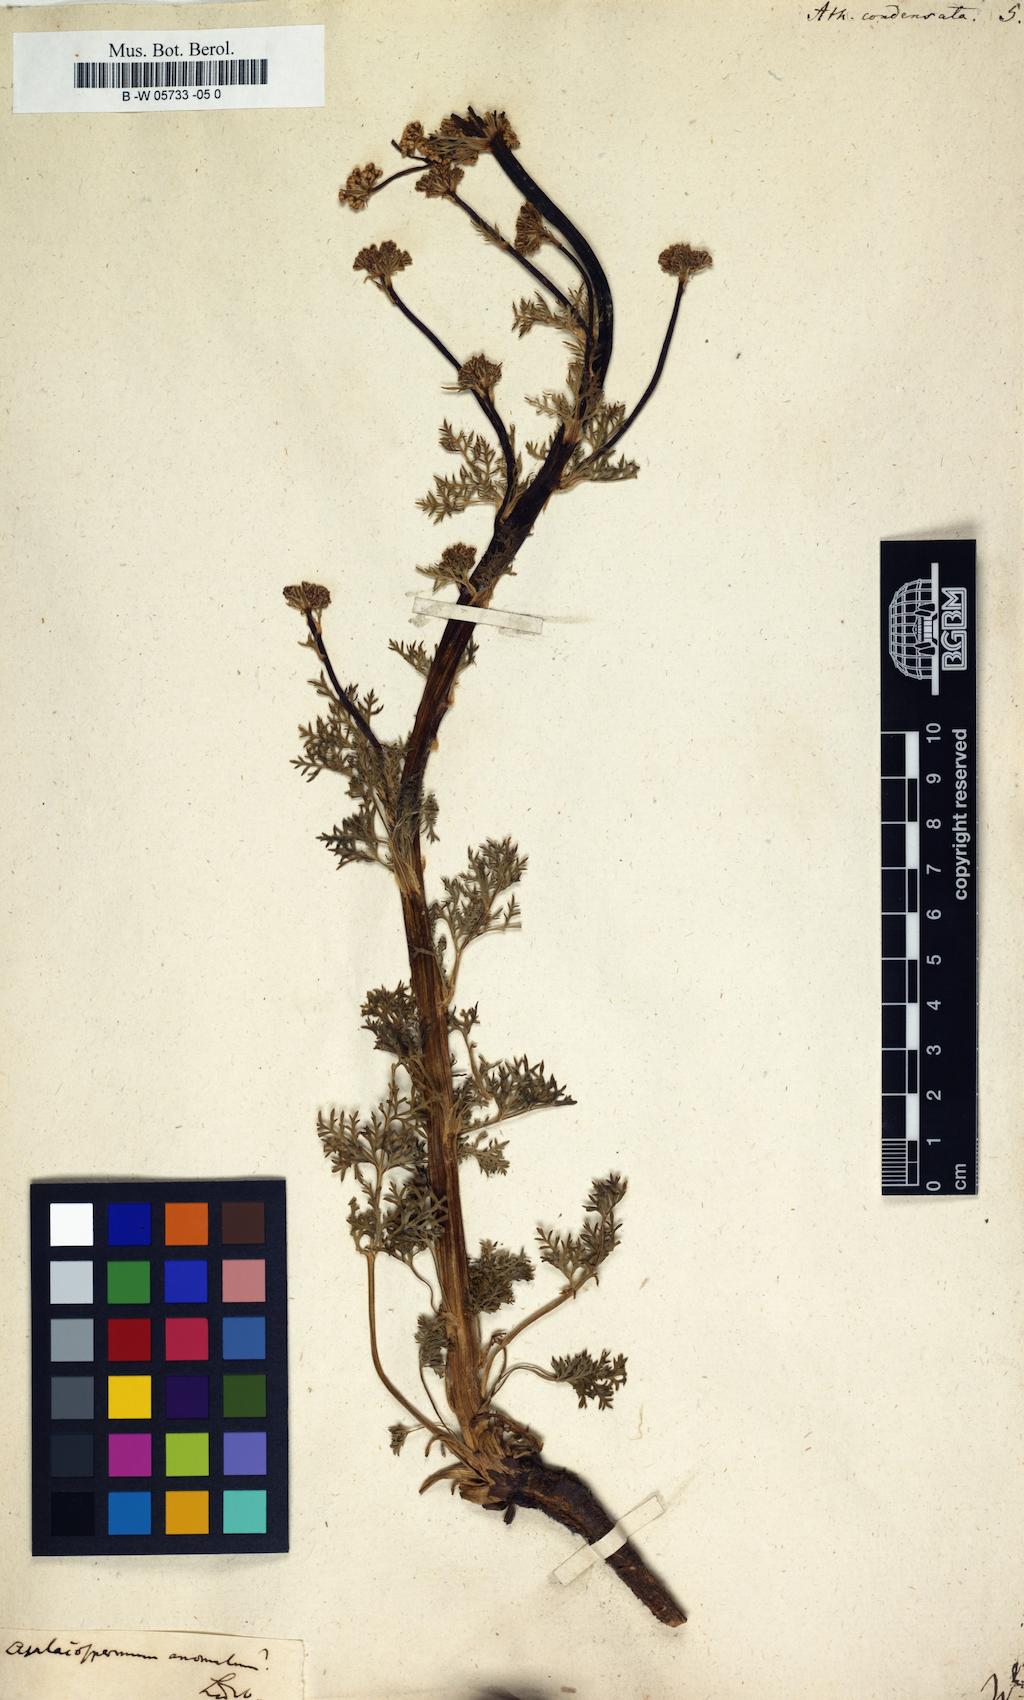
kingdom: Plantae
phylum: Tracheophyta
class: Magnoliopsida
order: Apiales
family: Apiaceae
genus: Seseli
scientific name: Seseli condensatum
